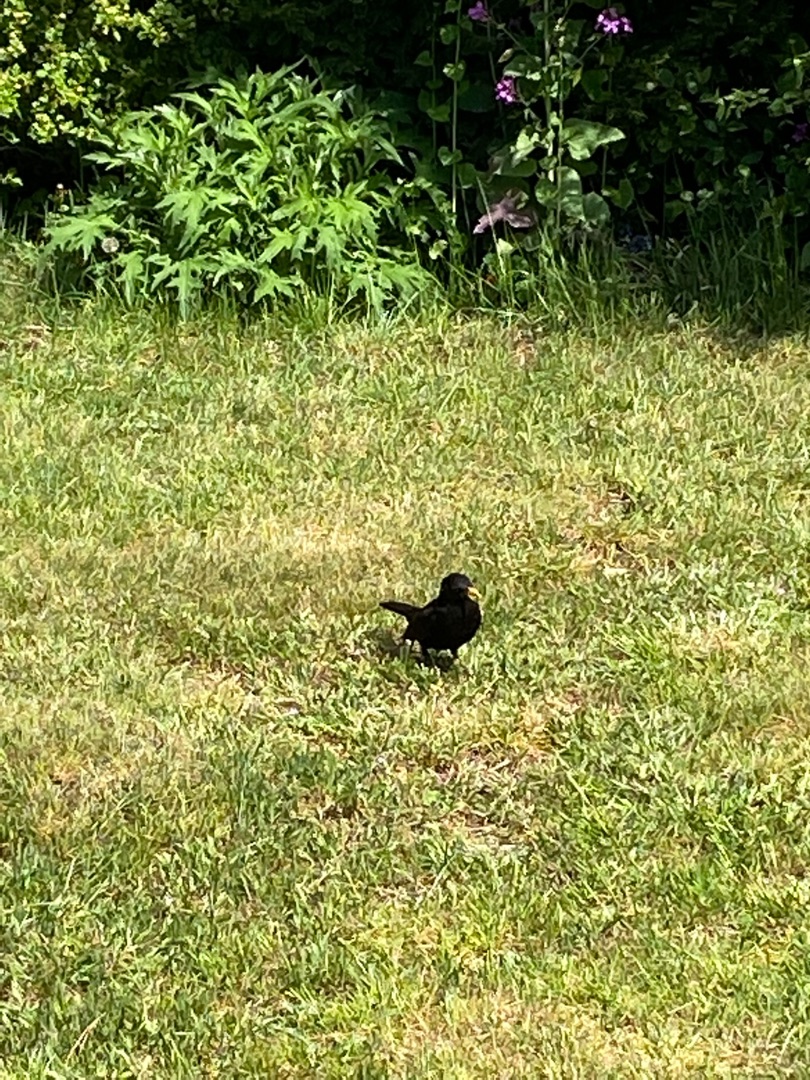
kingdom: Animalia
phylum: Chordata
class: Aves
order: Passeriformes
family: Turdidae
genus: Turdus
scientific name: Turdus merula
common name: Solsort
